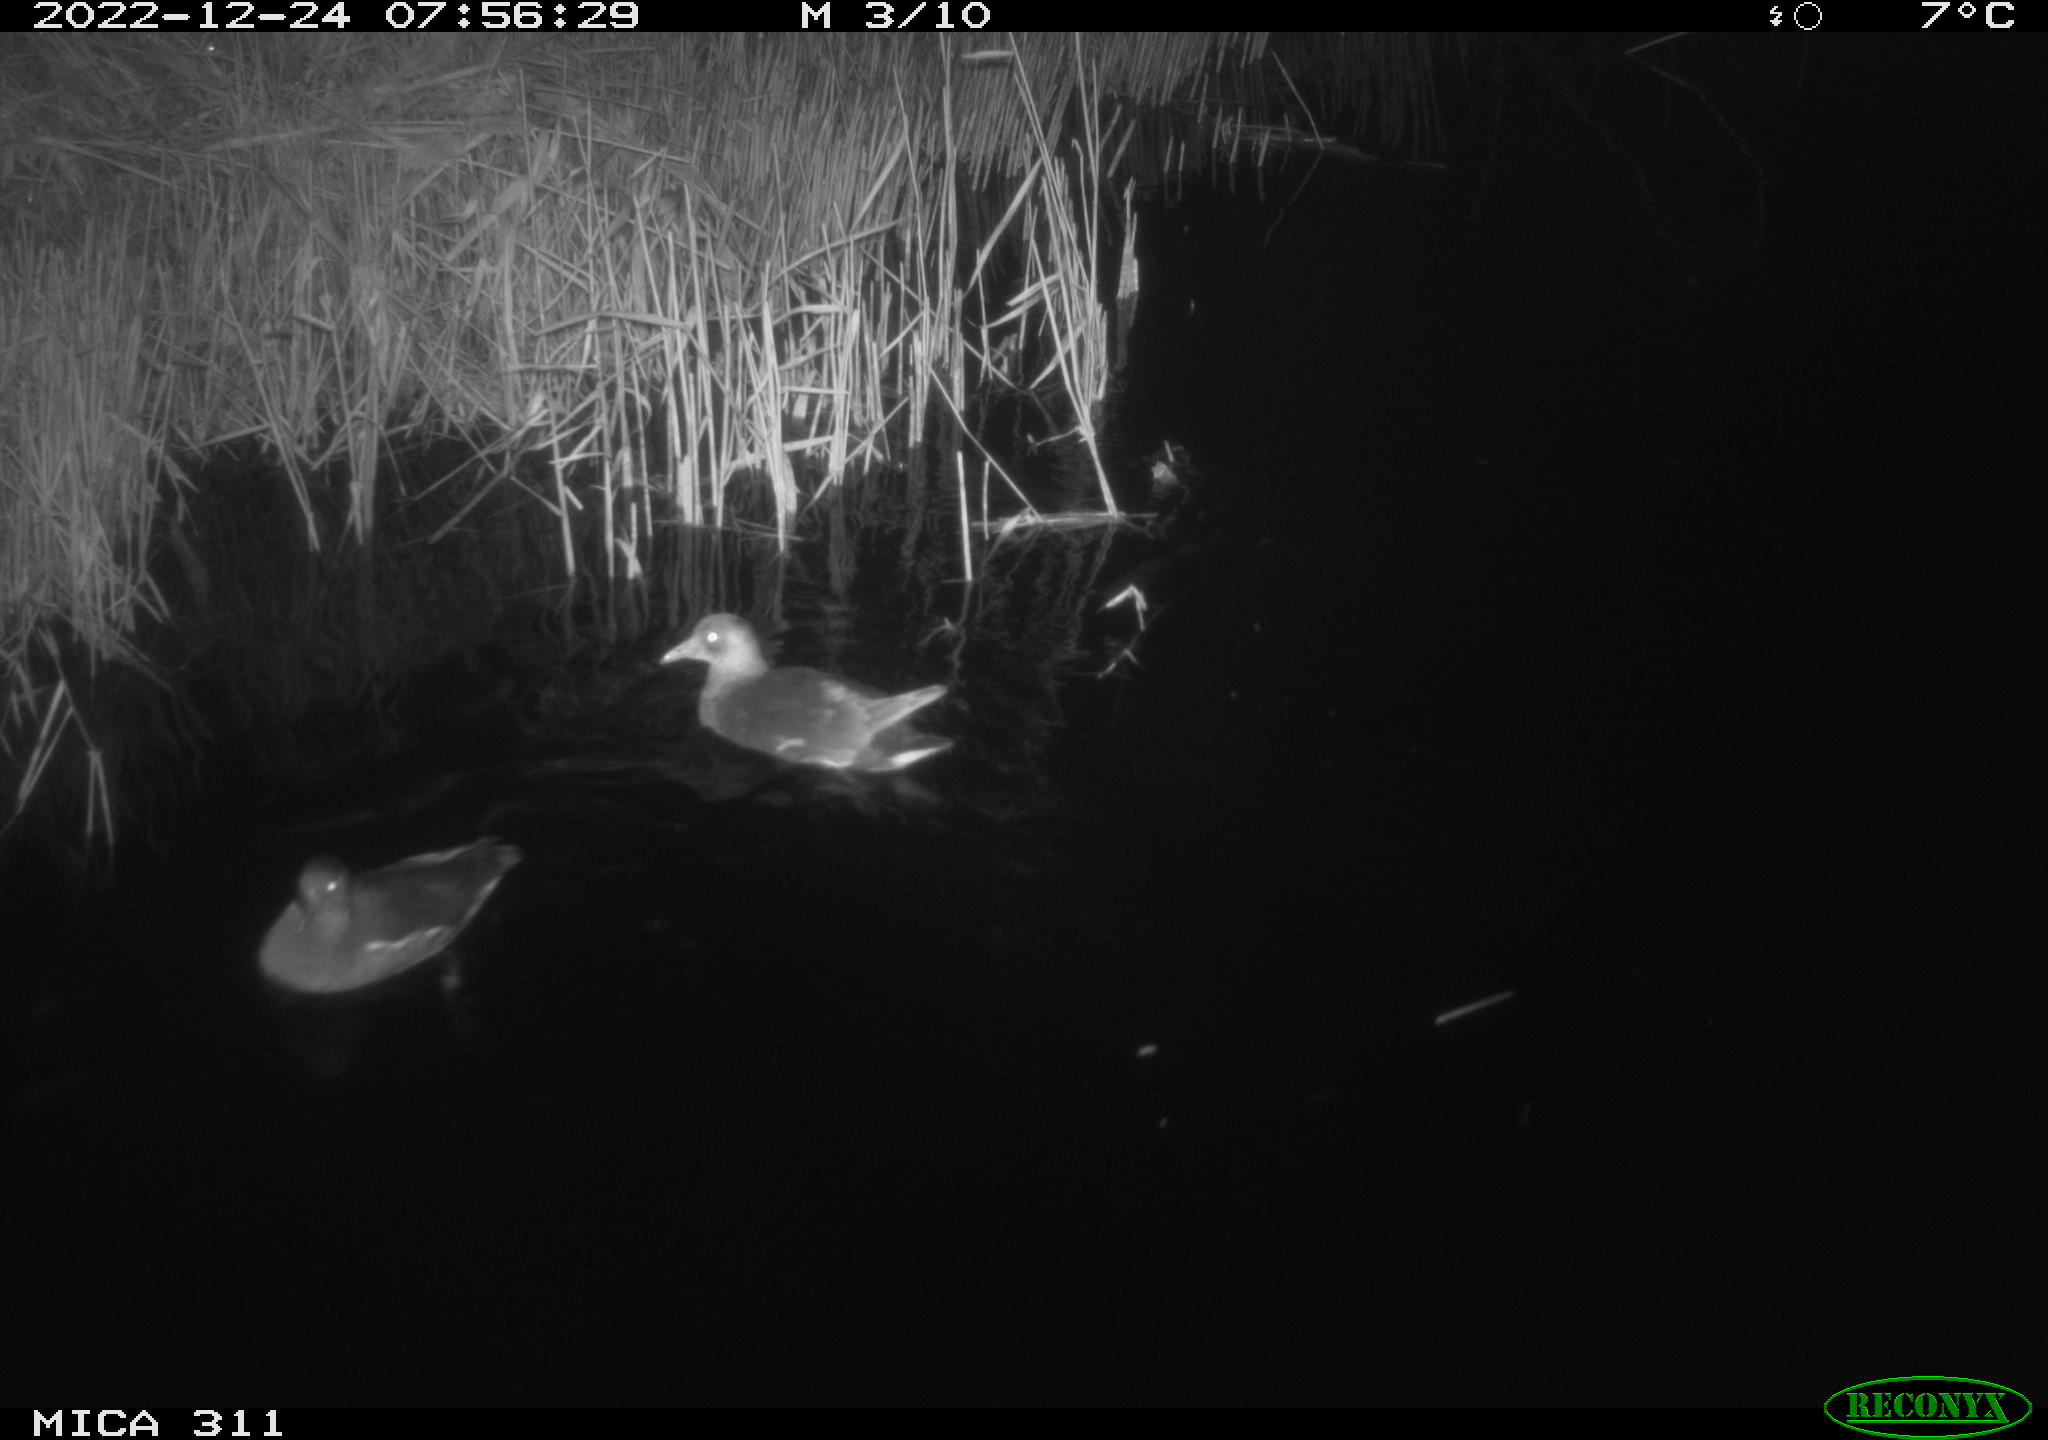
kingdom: Animalia
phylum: Chordata
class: Aves
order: Gruiformes
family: Rallidae
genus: Gallinula
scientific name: Gallinula chloropus
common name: Common moorhen
